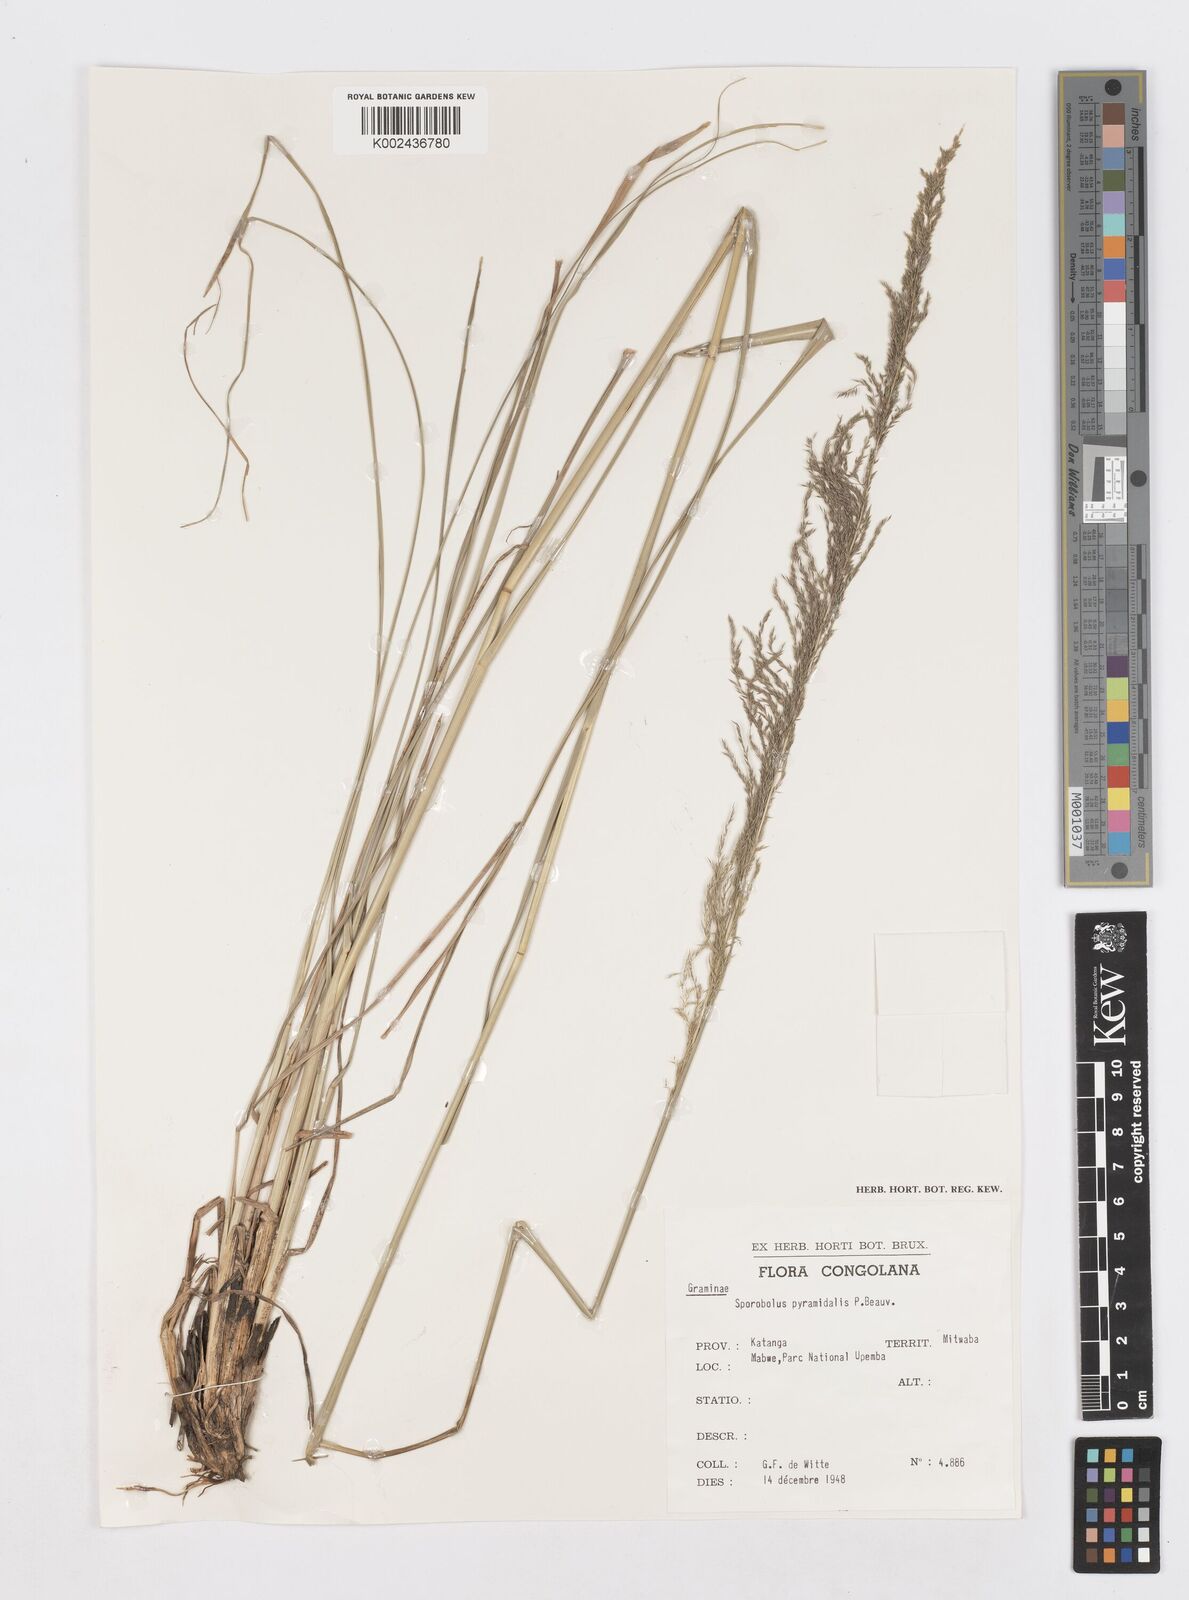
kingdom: Plantae
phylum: Tracheophyta
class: Liliopsida
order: Poales
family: Poaceae
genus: Sporobolus
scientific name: Sporobolus pyramidalis
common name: West indian dropseed
